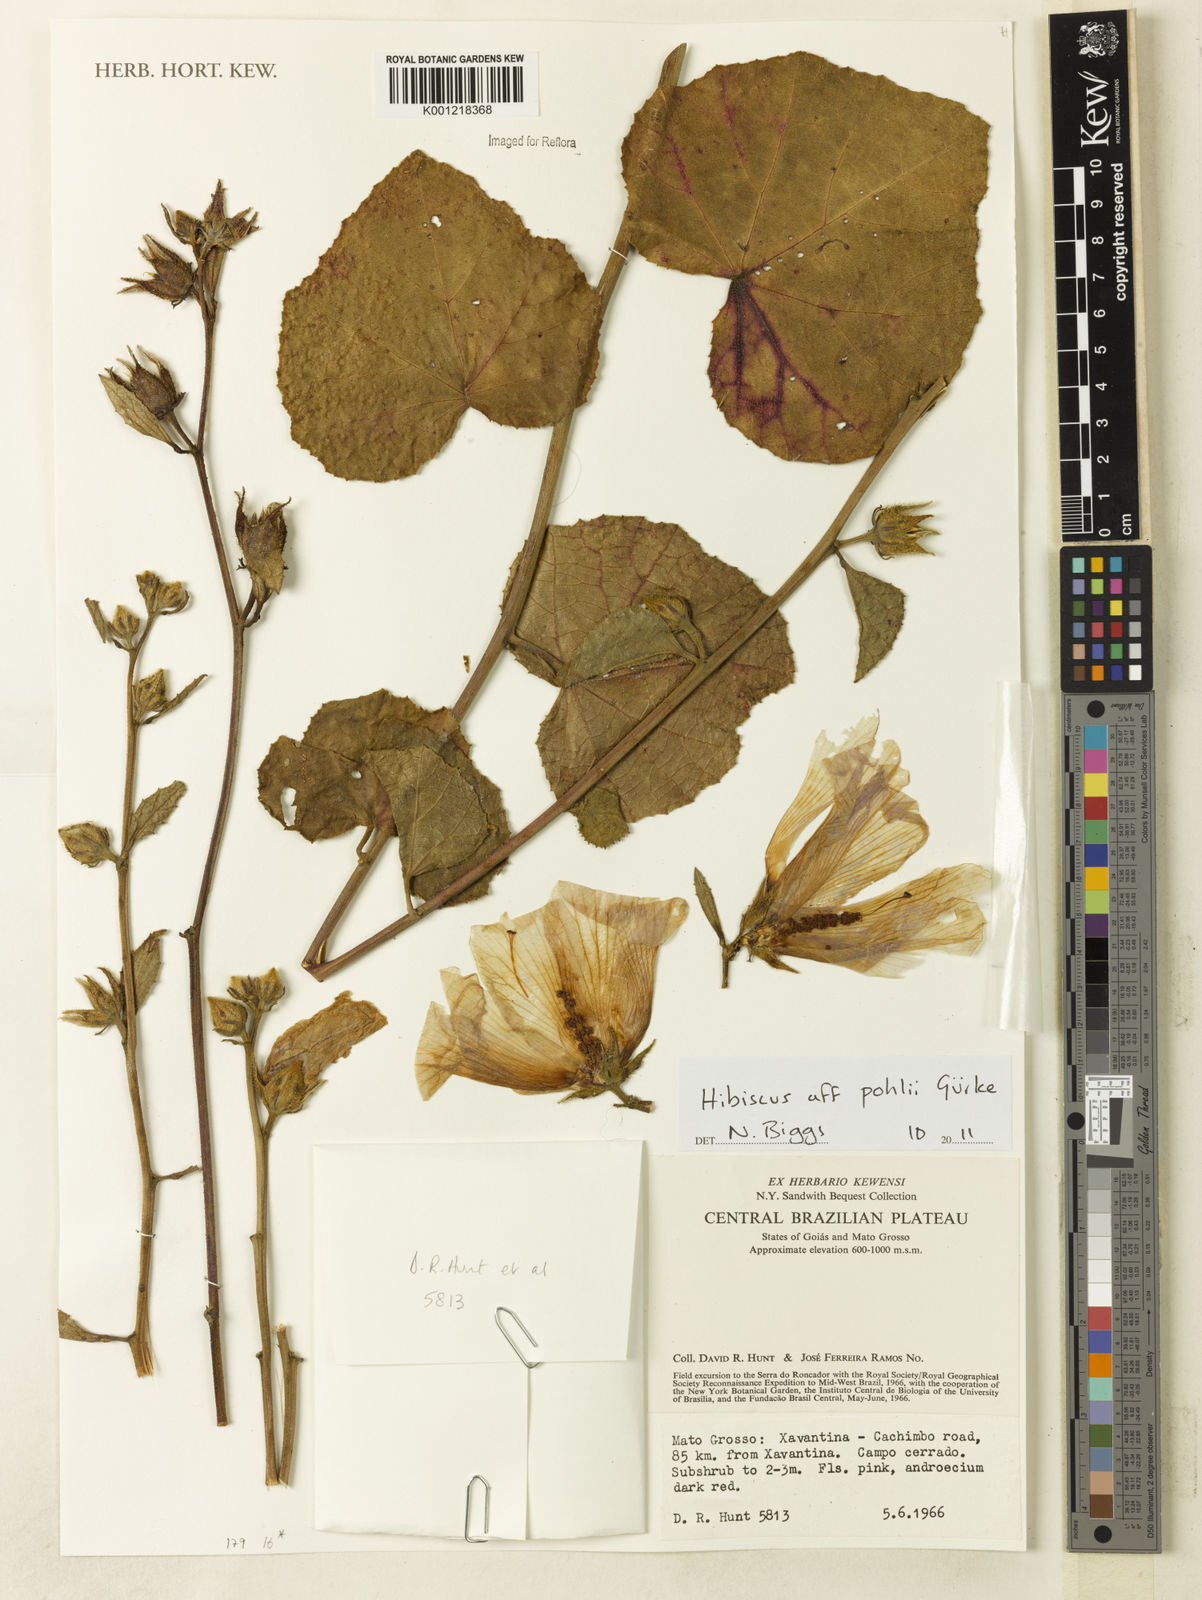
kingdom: Plantae
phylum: Tracheophyta
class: Magnoliopsida
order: Malvales
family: Malvaceae
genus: Hibiscus
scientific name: Hibiscus
